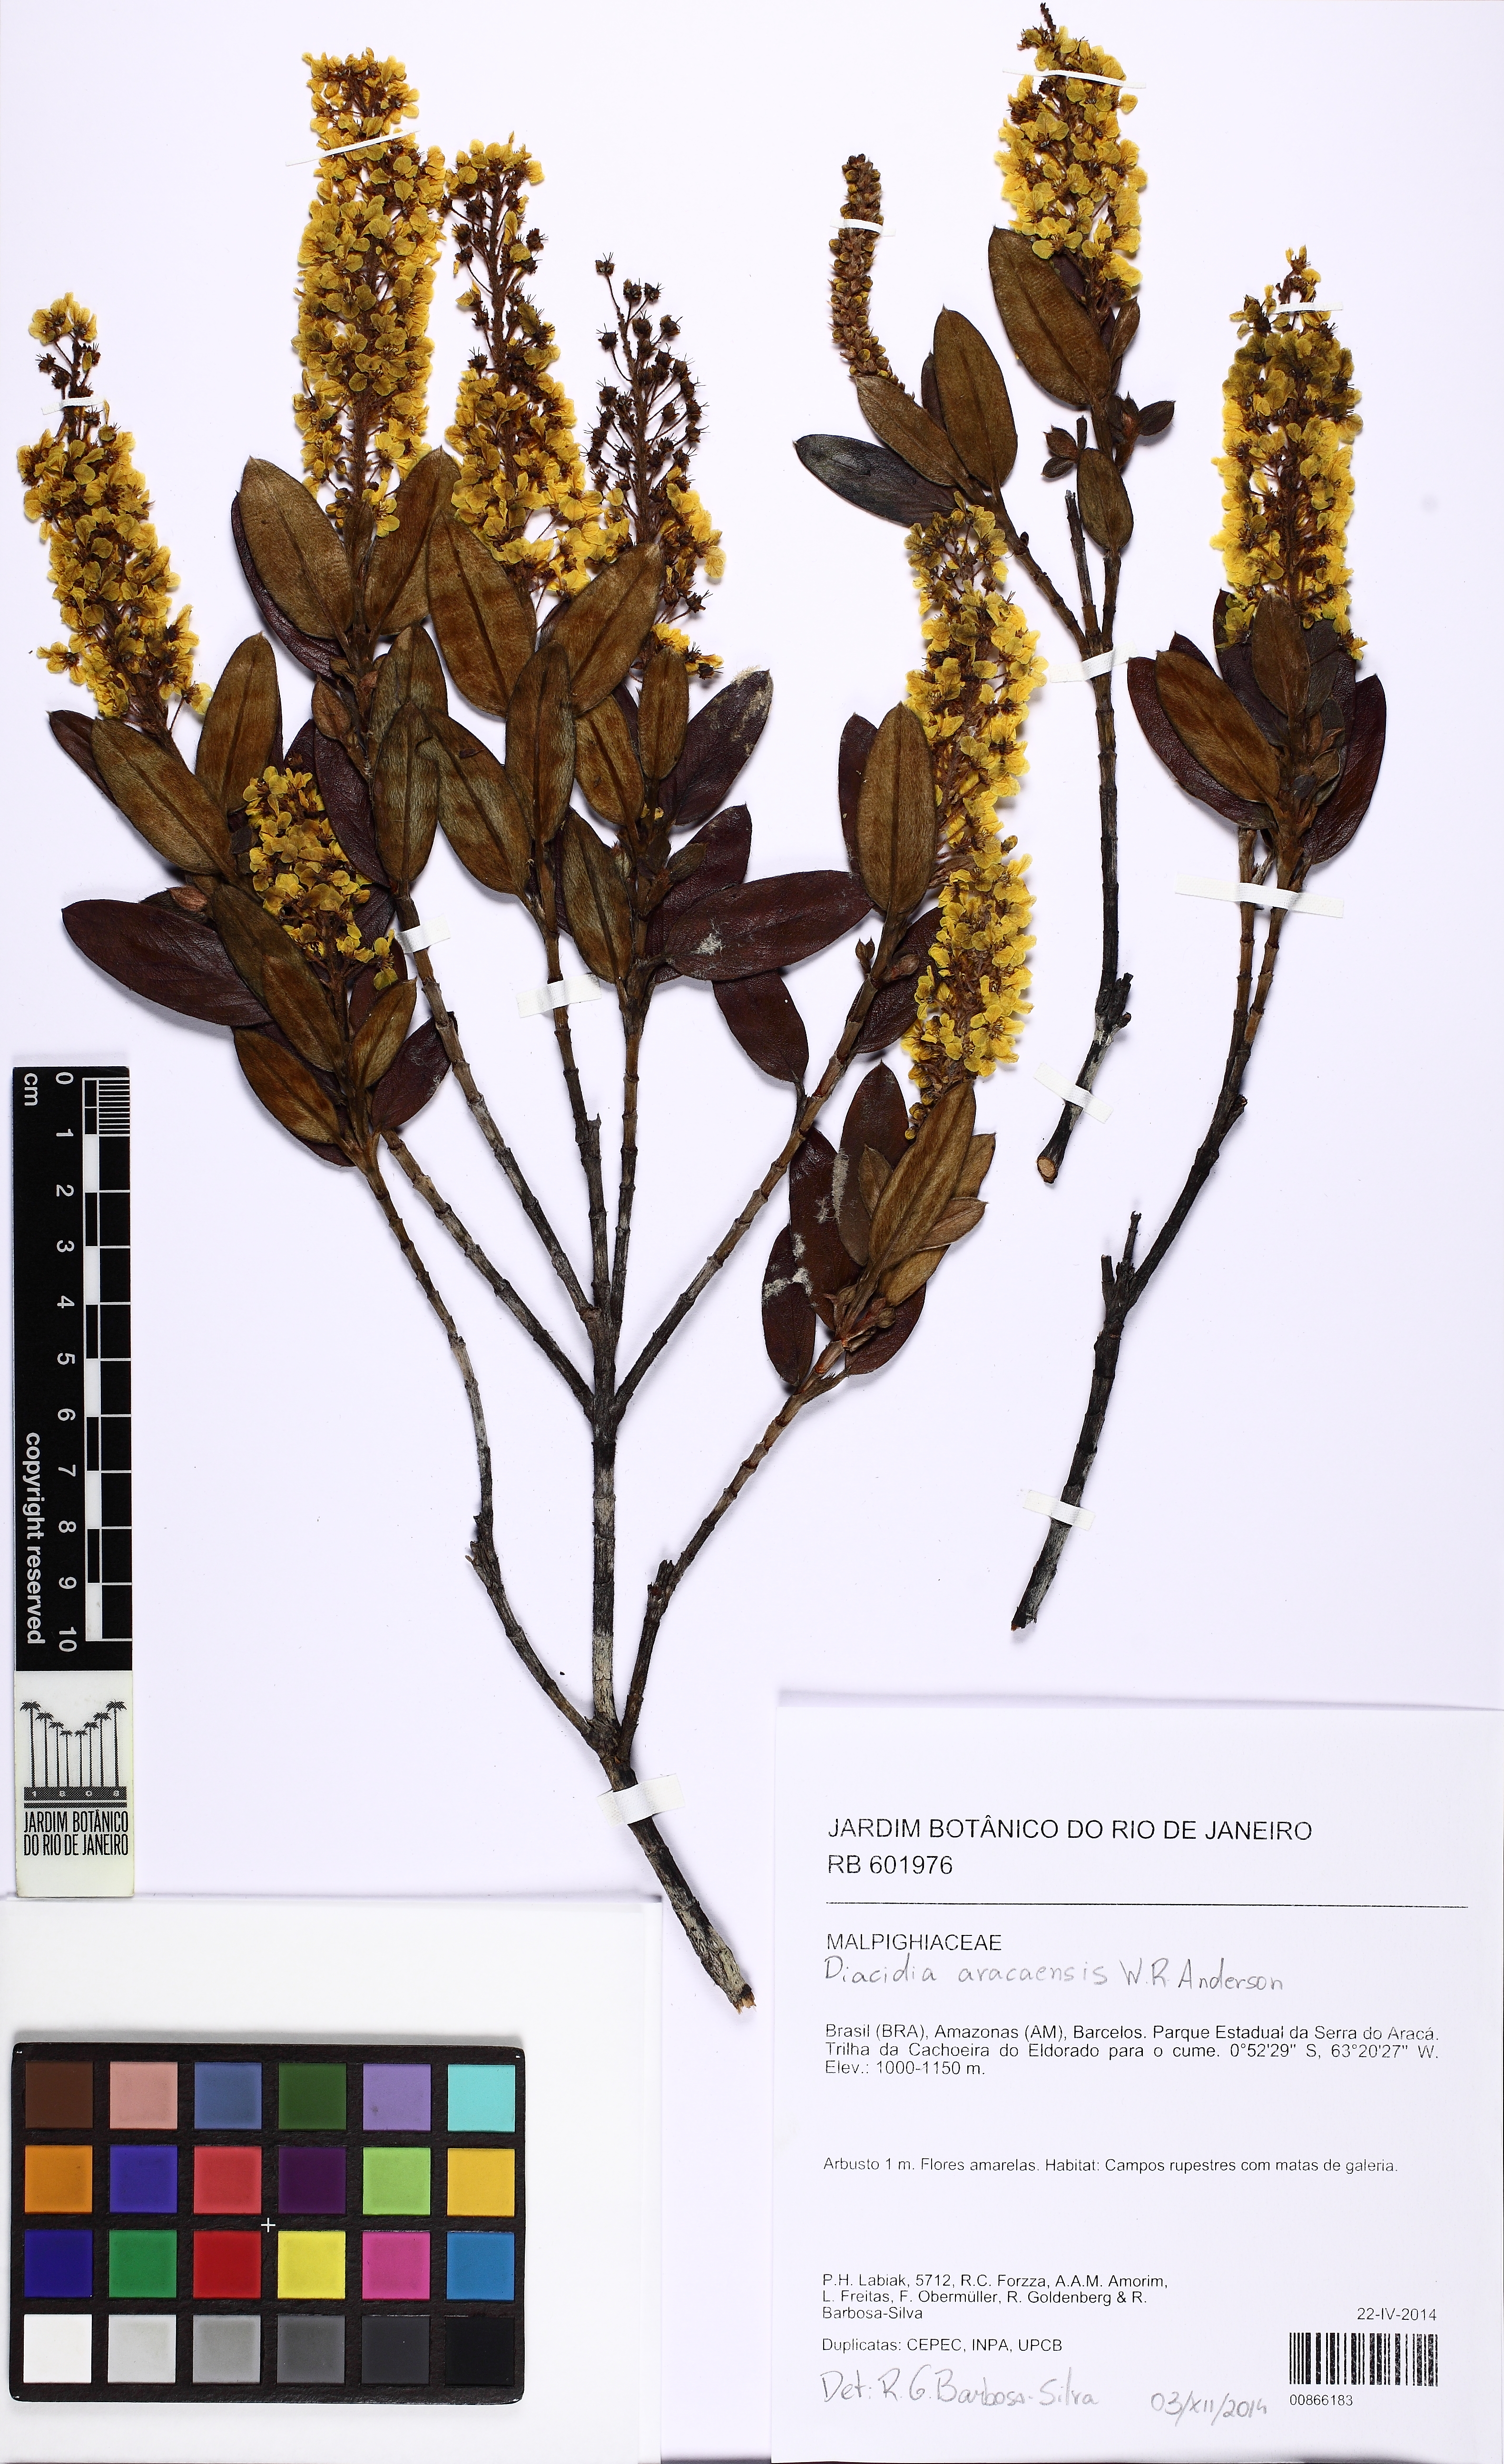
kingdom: Plantae
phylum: Tracheophyta
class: Magnoliopsida
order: Malpighiales
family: Malpighiaceae
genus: Diacidia
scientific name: Diacidia aracaensis
